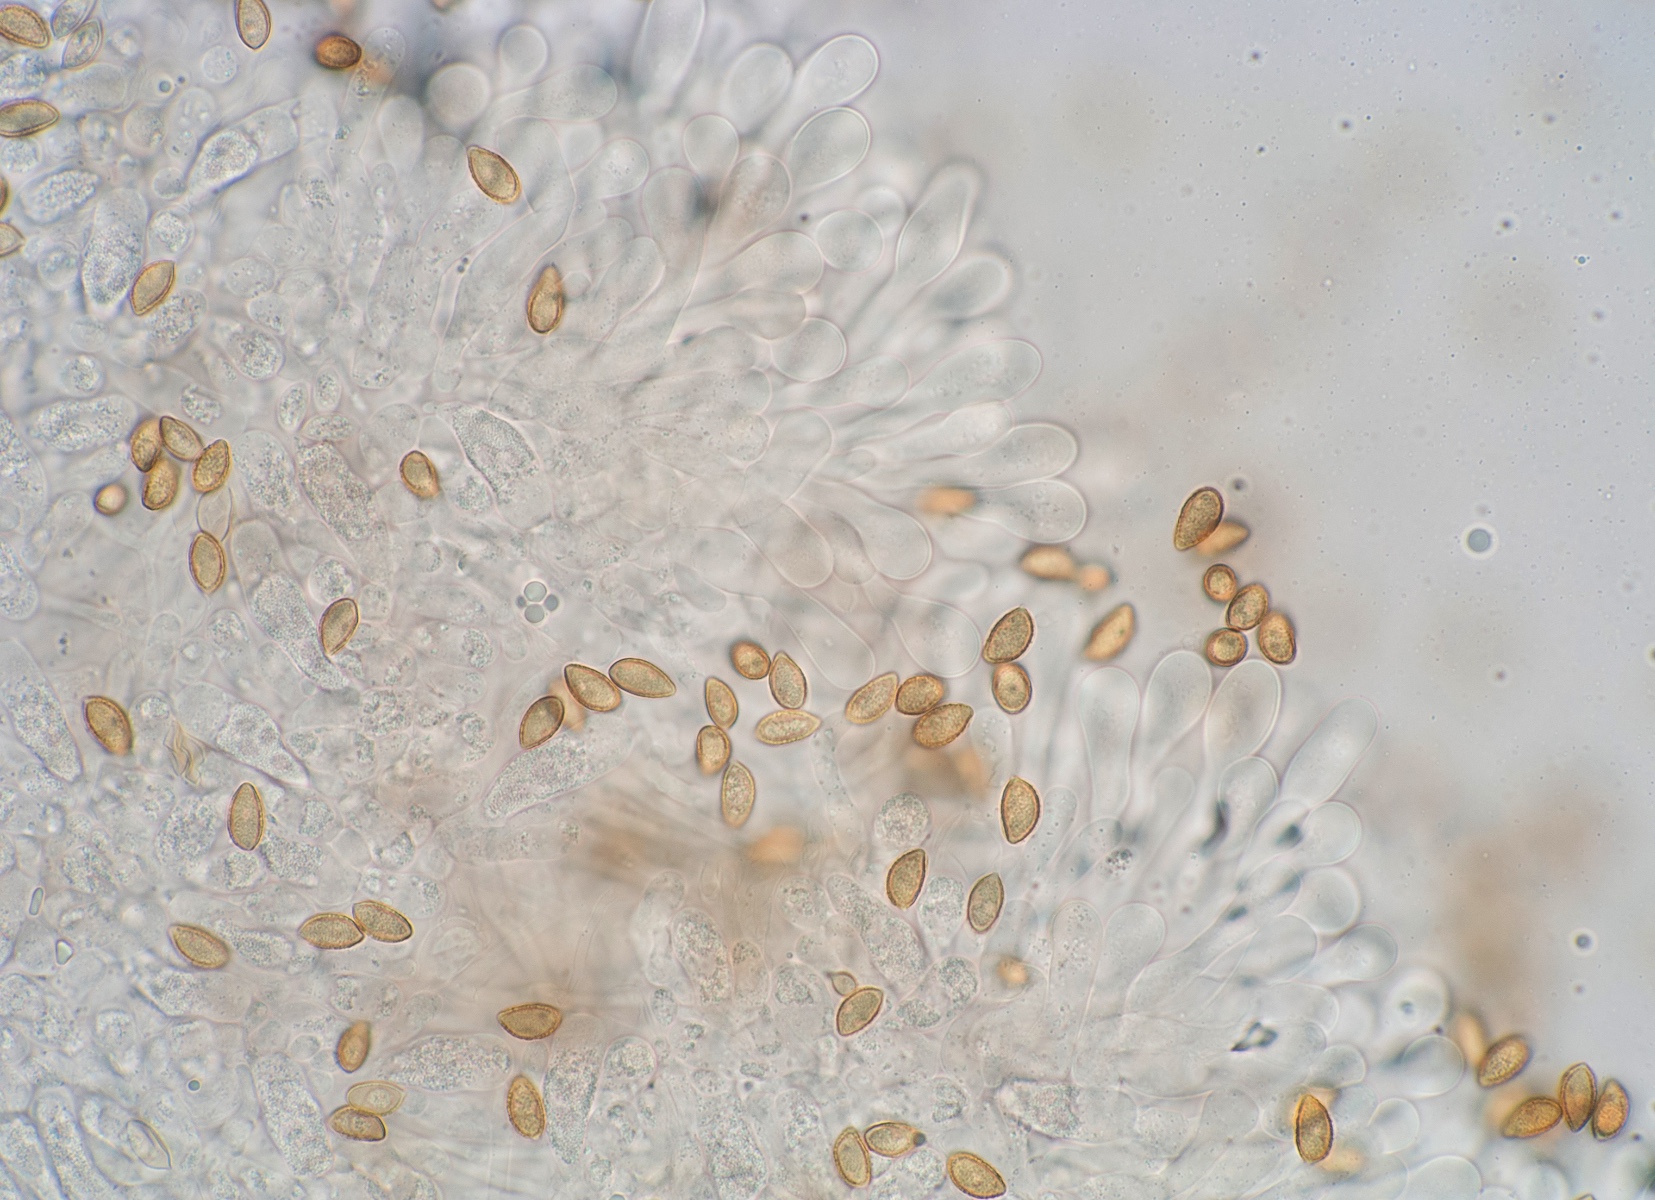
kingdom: Fungi
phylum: Basidiomycota
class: Agaricomycetes
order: Agaricales
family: Hymenogastraceae
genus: Hebeloma
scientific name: Hebeloma
